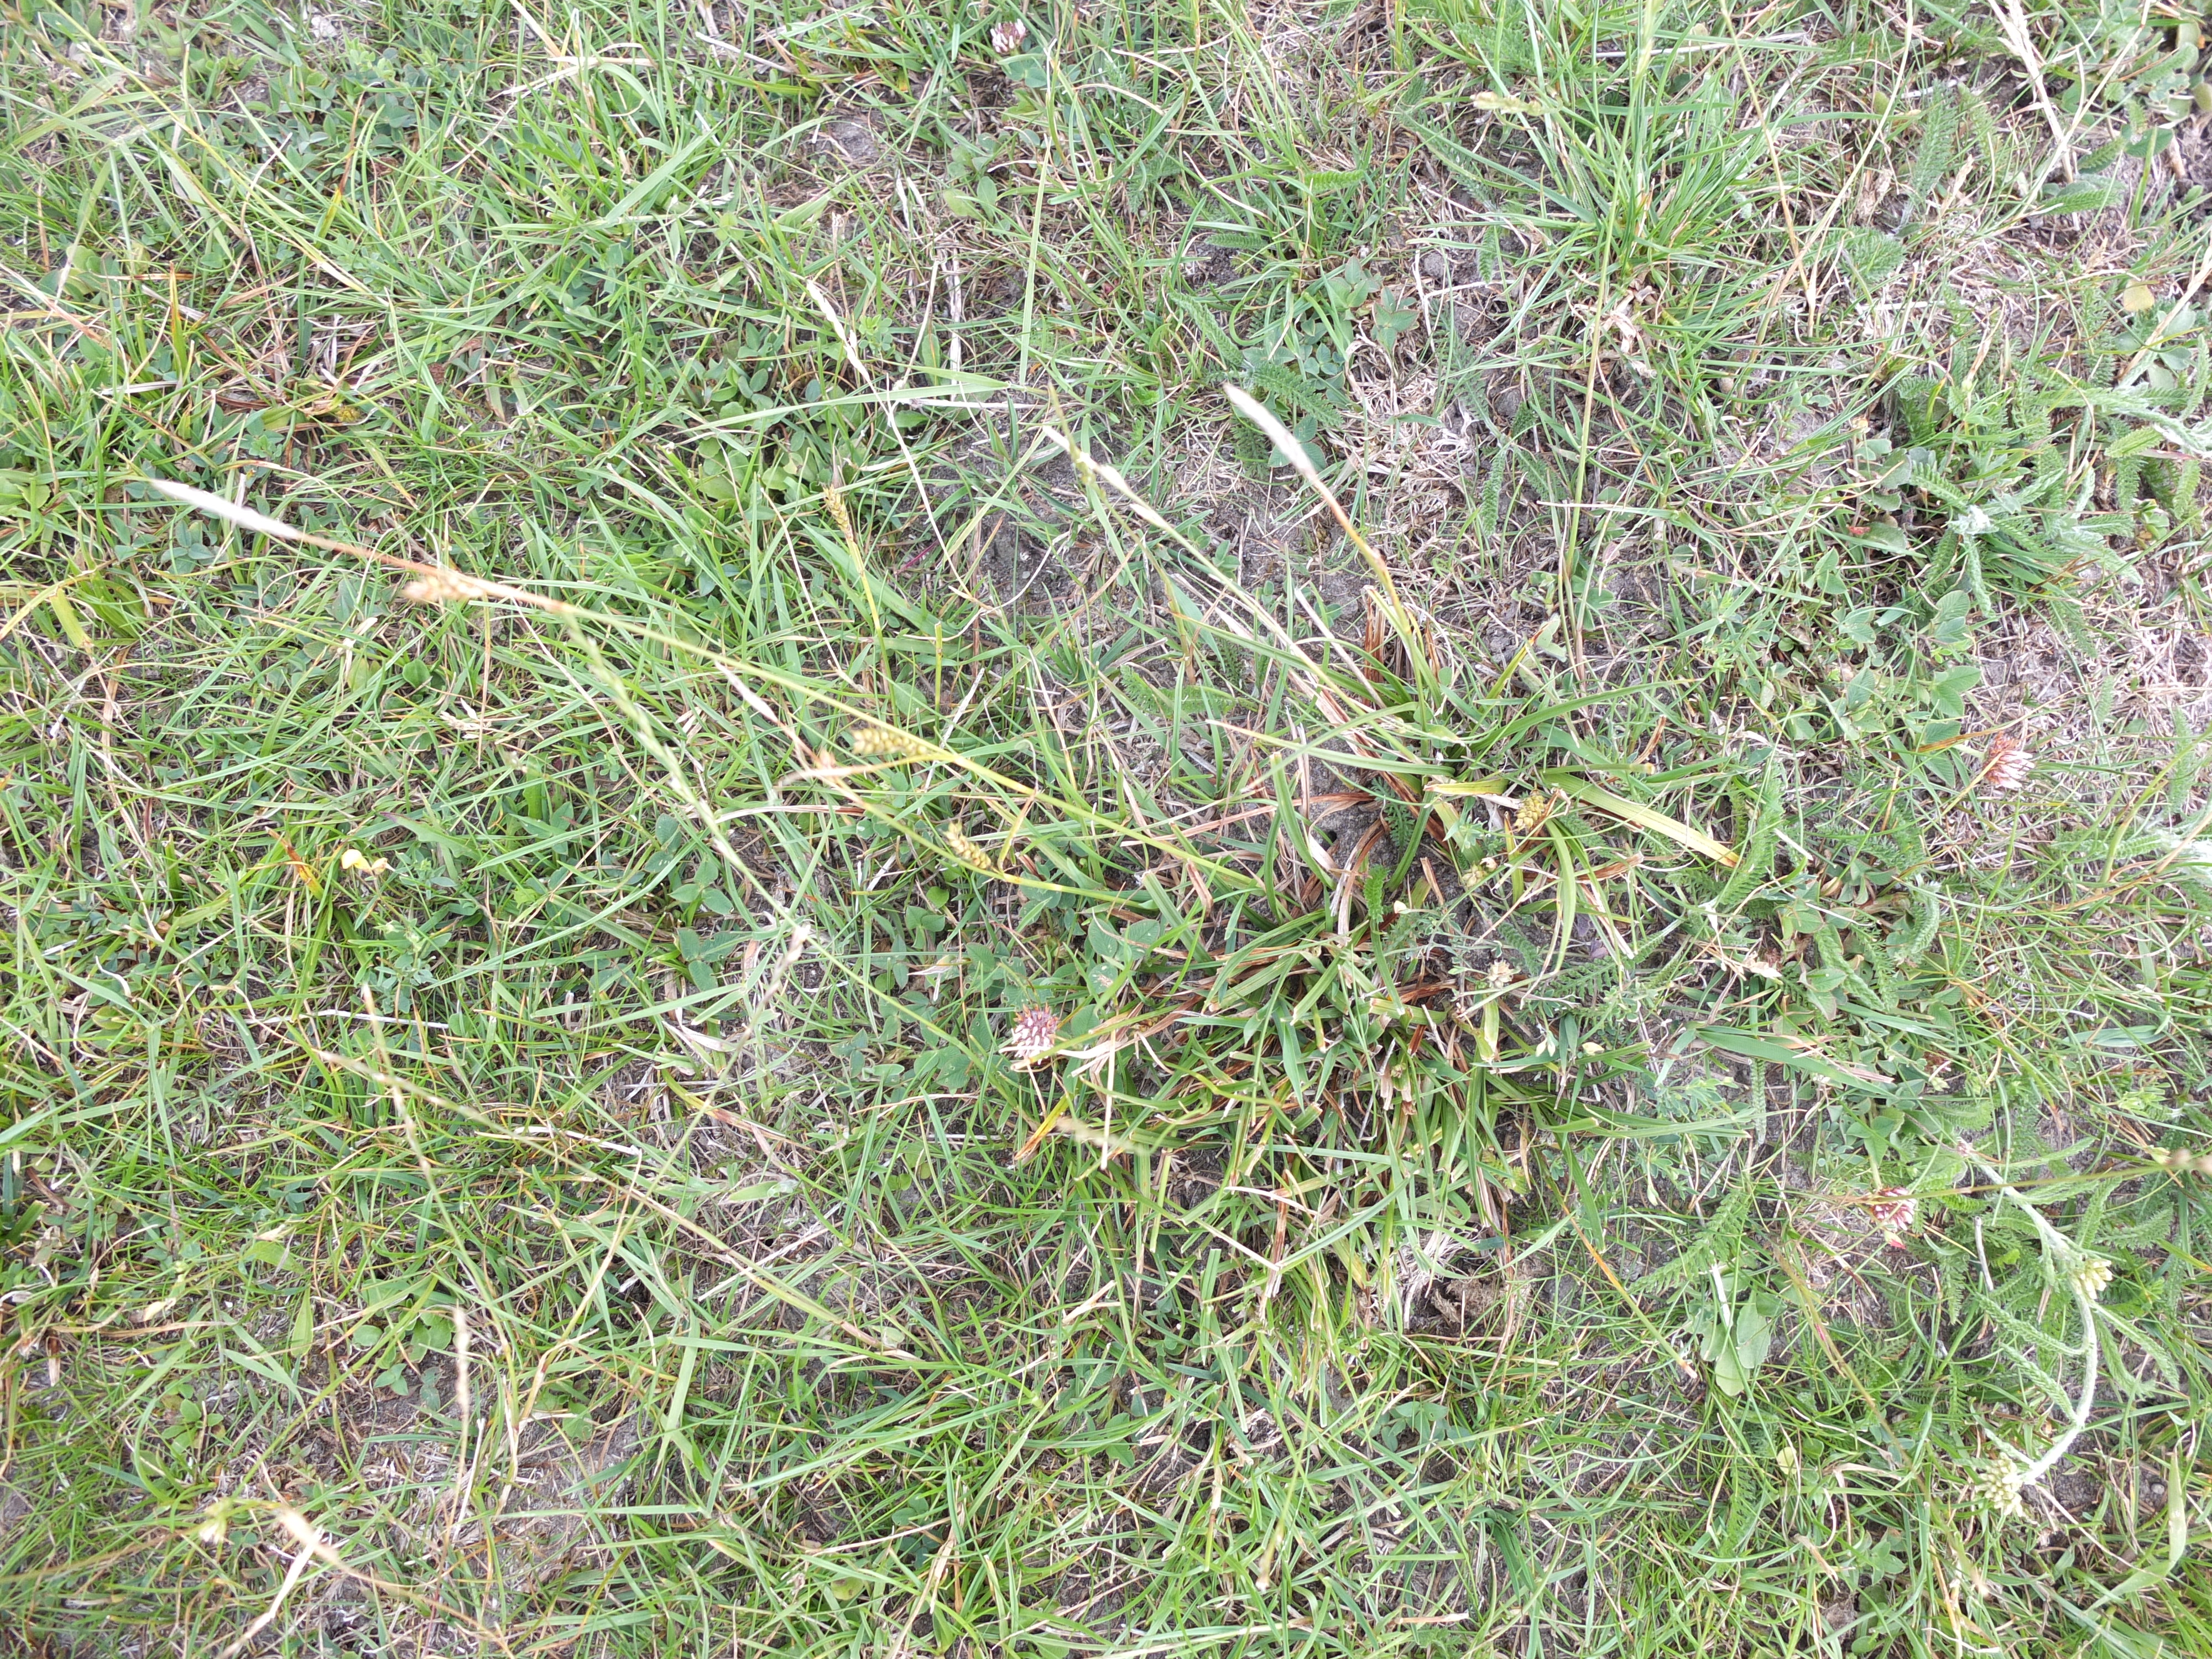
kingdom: Plantae
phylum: Tracheophyta
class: Liliopsida
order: Poales
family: Cyperaceae
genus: Carex
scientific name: Carex distans
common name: Fjernakset star
